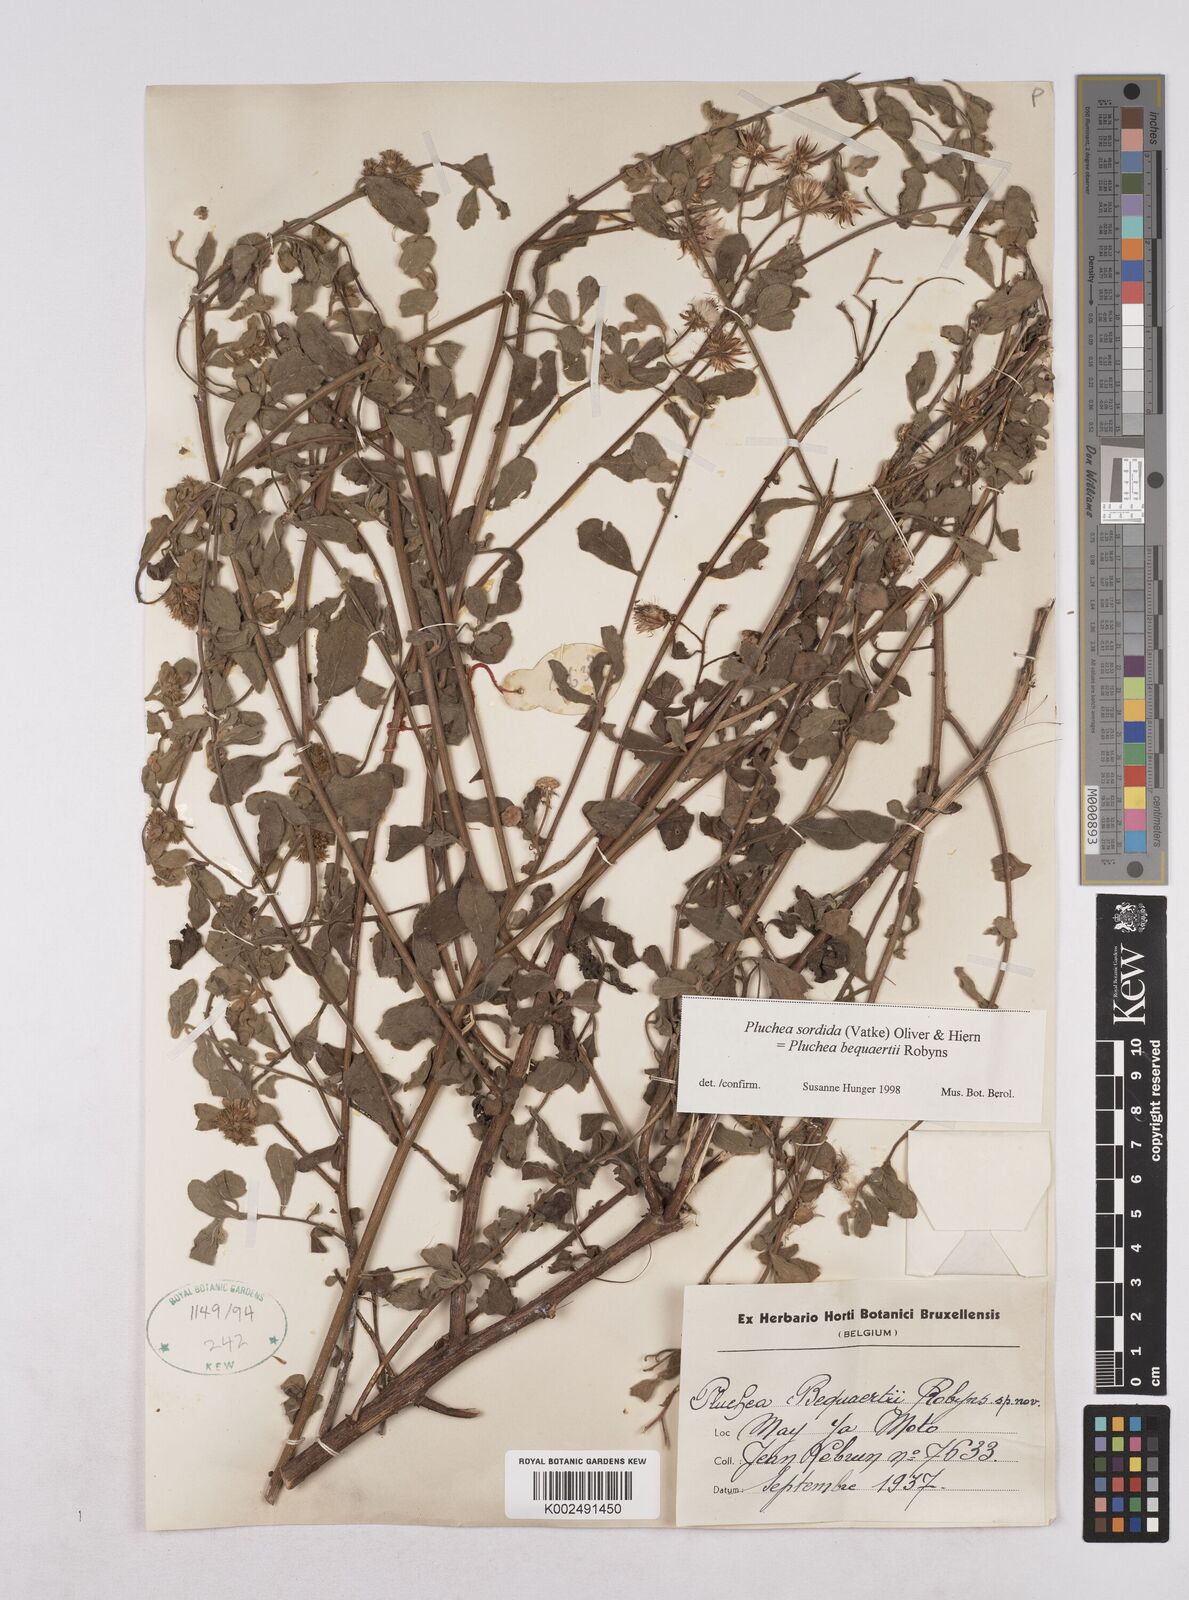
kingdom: Plantae
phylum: Tracheophyta
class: Magnoliopsida
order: Asterales
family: Asteraceae
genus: Pluchea
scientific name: Pluchea sordida
